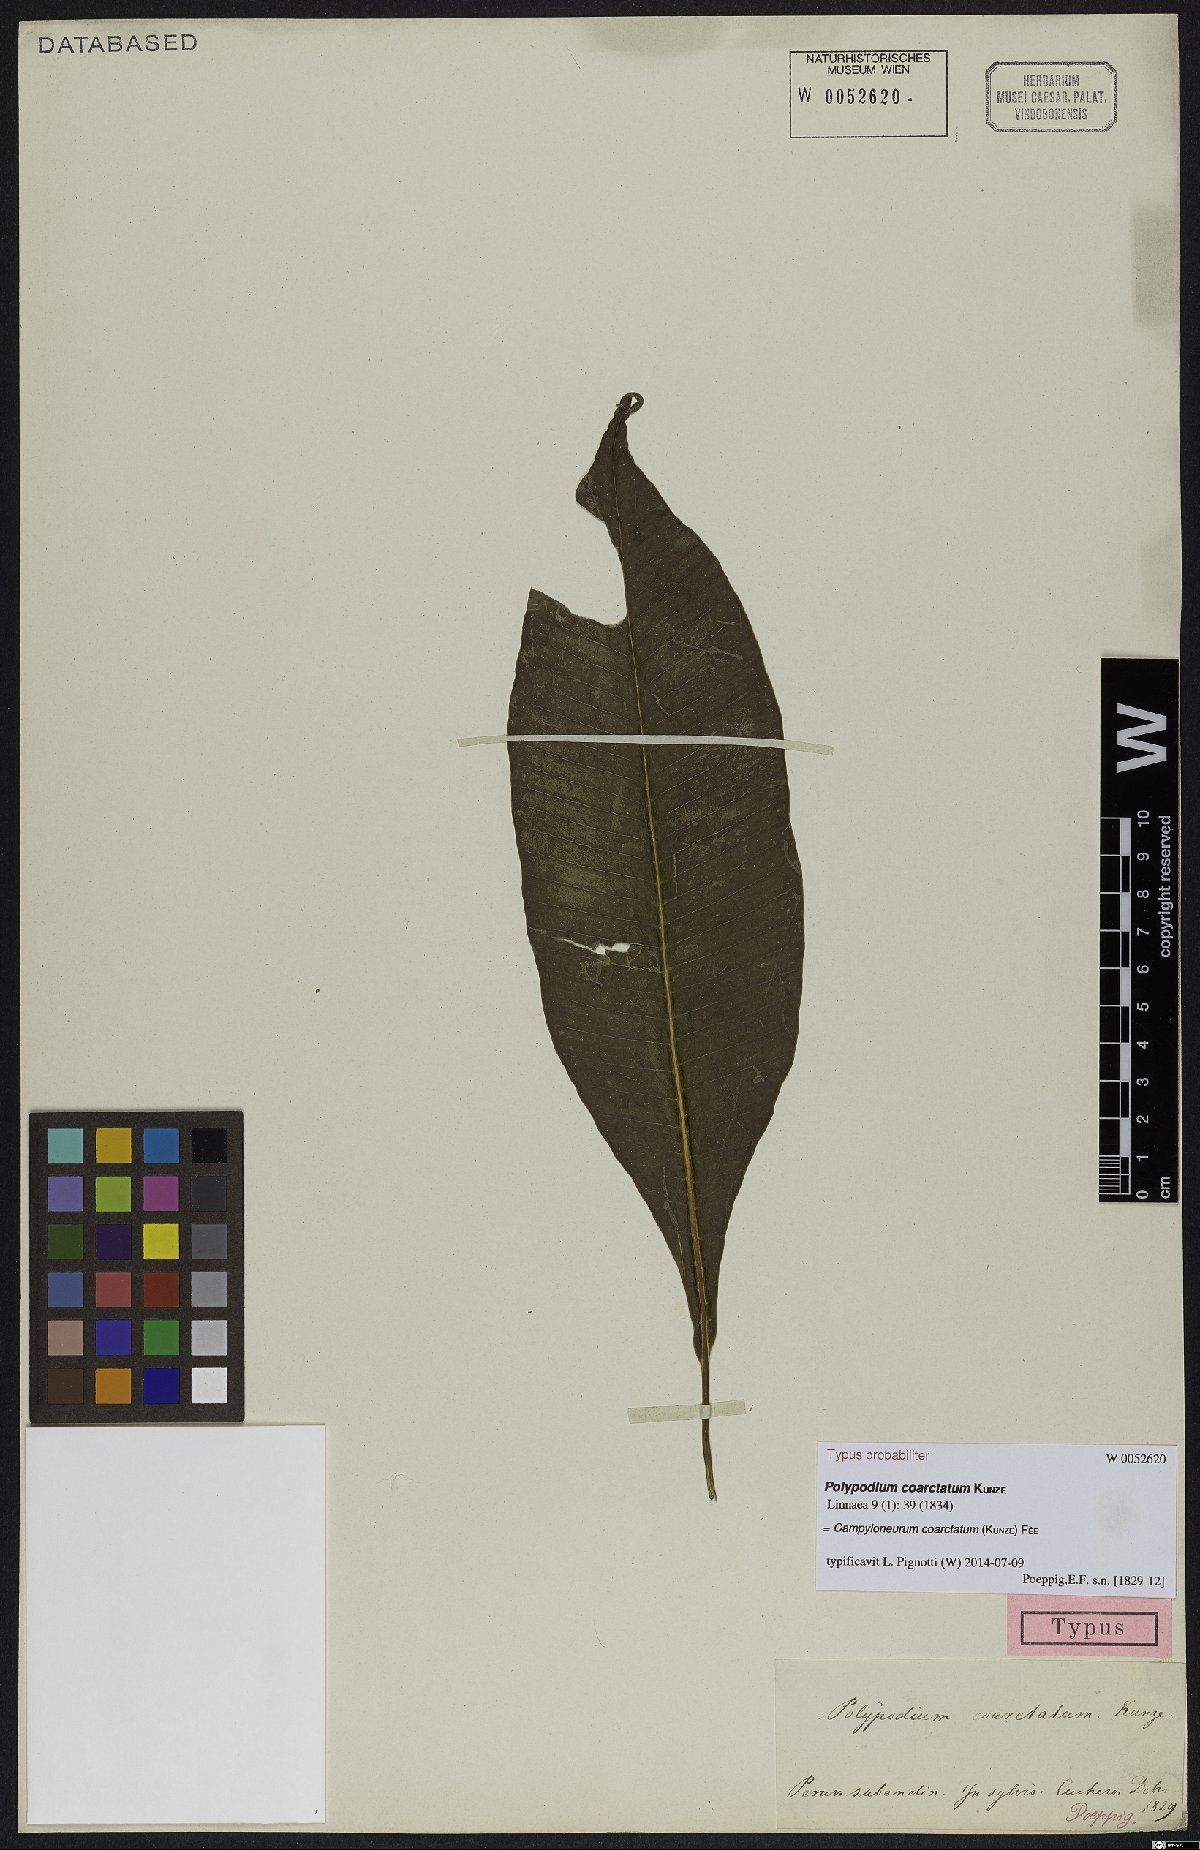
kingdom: Plantae
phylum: Tracheophyta
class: Polypodiopsida
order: Polypodiales
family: Polypodiaceae
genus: Campyloneurum
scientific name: Campyloneurum coarctatum
